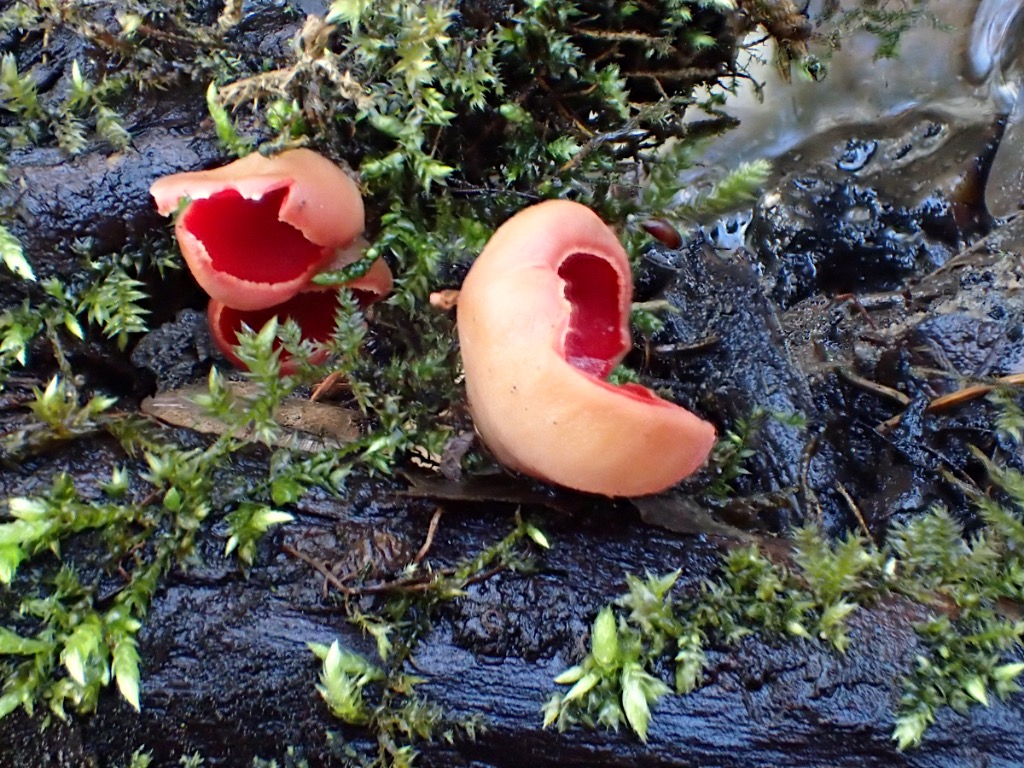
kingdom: Fungi
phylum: Ascomycota
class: Pezizomycetes
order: Pezizales
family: Sarcoscyphaceae
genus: Sarcoscypha
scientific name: Sarcoscypha austriaca
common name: krølhåret pragtbæger
